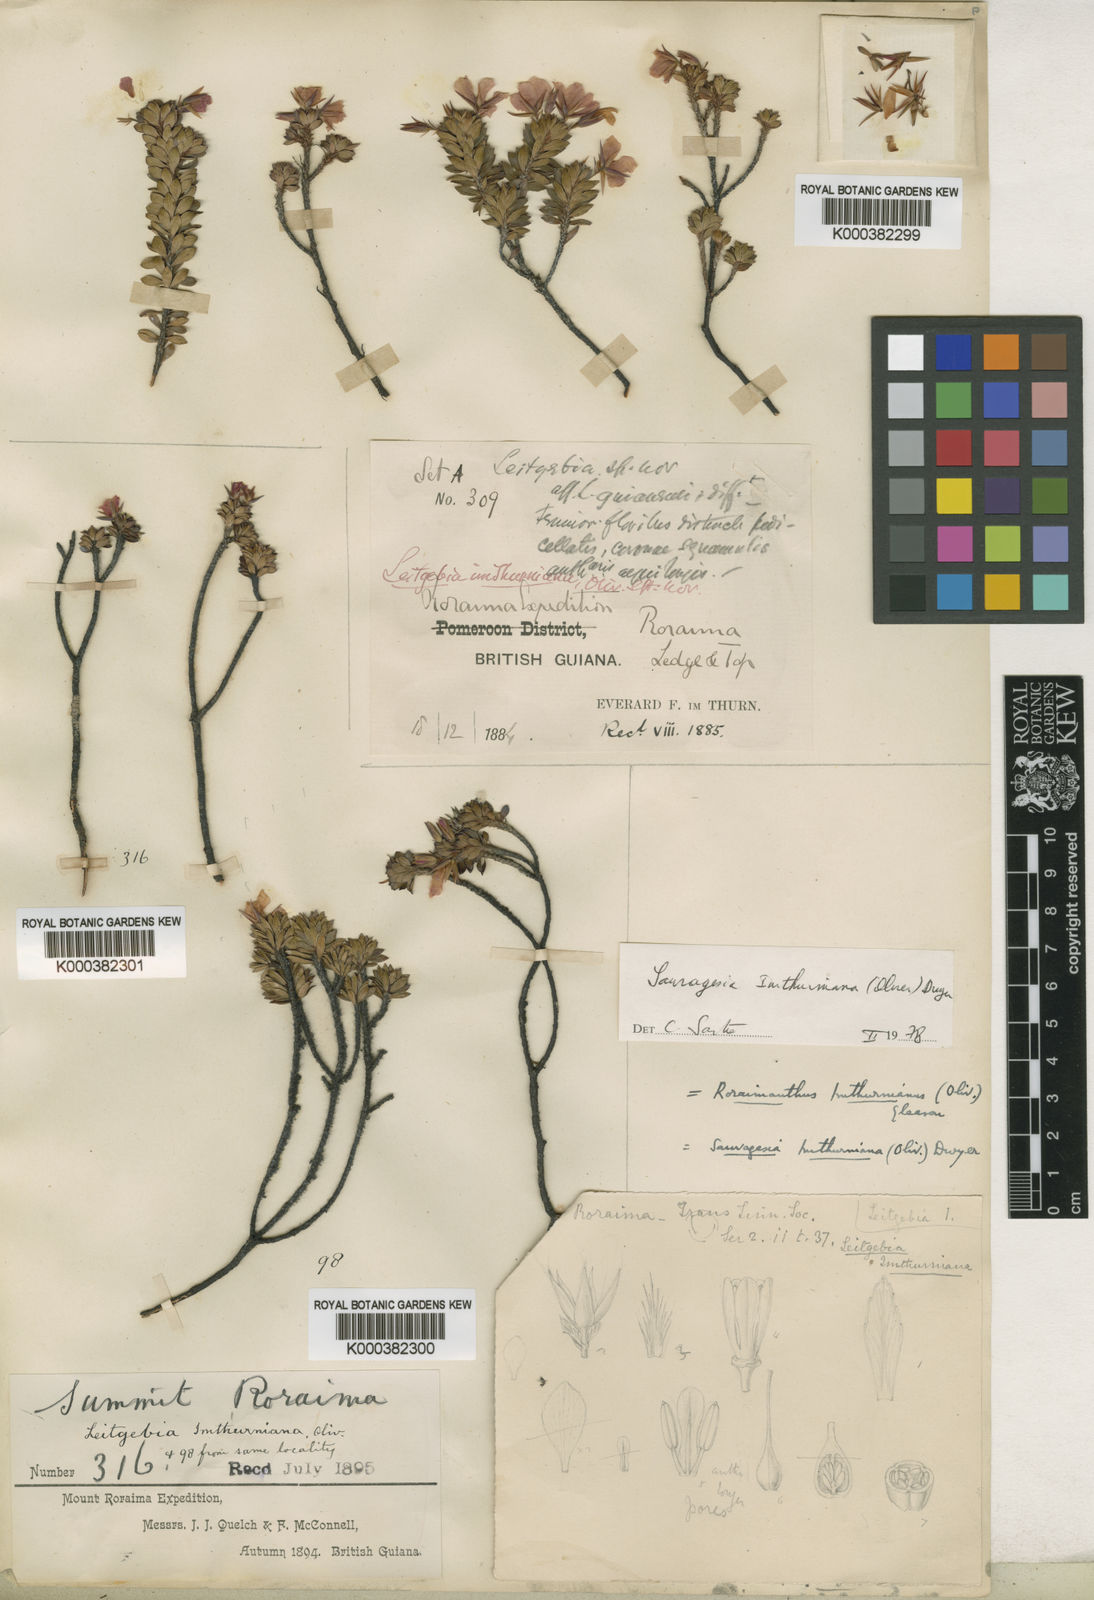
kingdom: Plantae
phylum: Tracheophyta
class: Magnoliopsida
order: Malpighiales
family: Ochnaceae
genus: Sauvagesia
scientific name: Sauvagesia imthurniana
